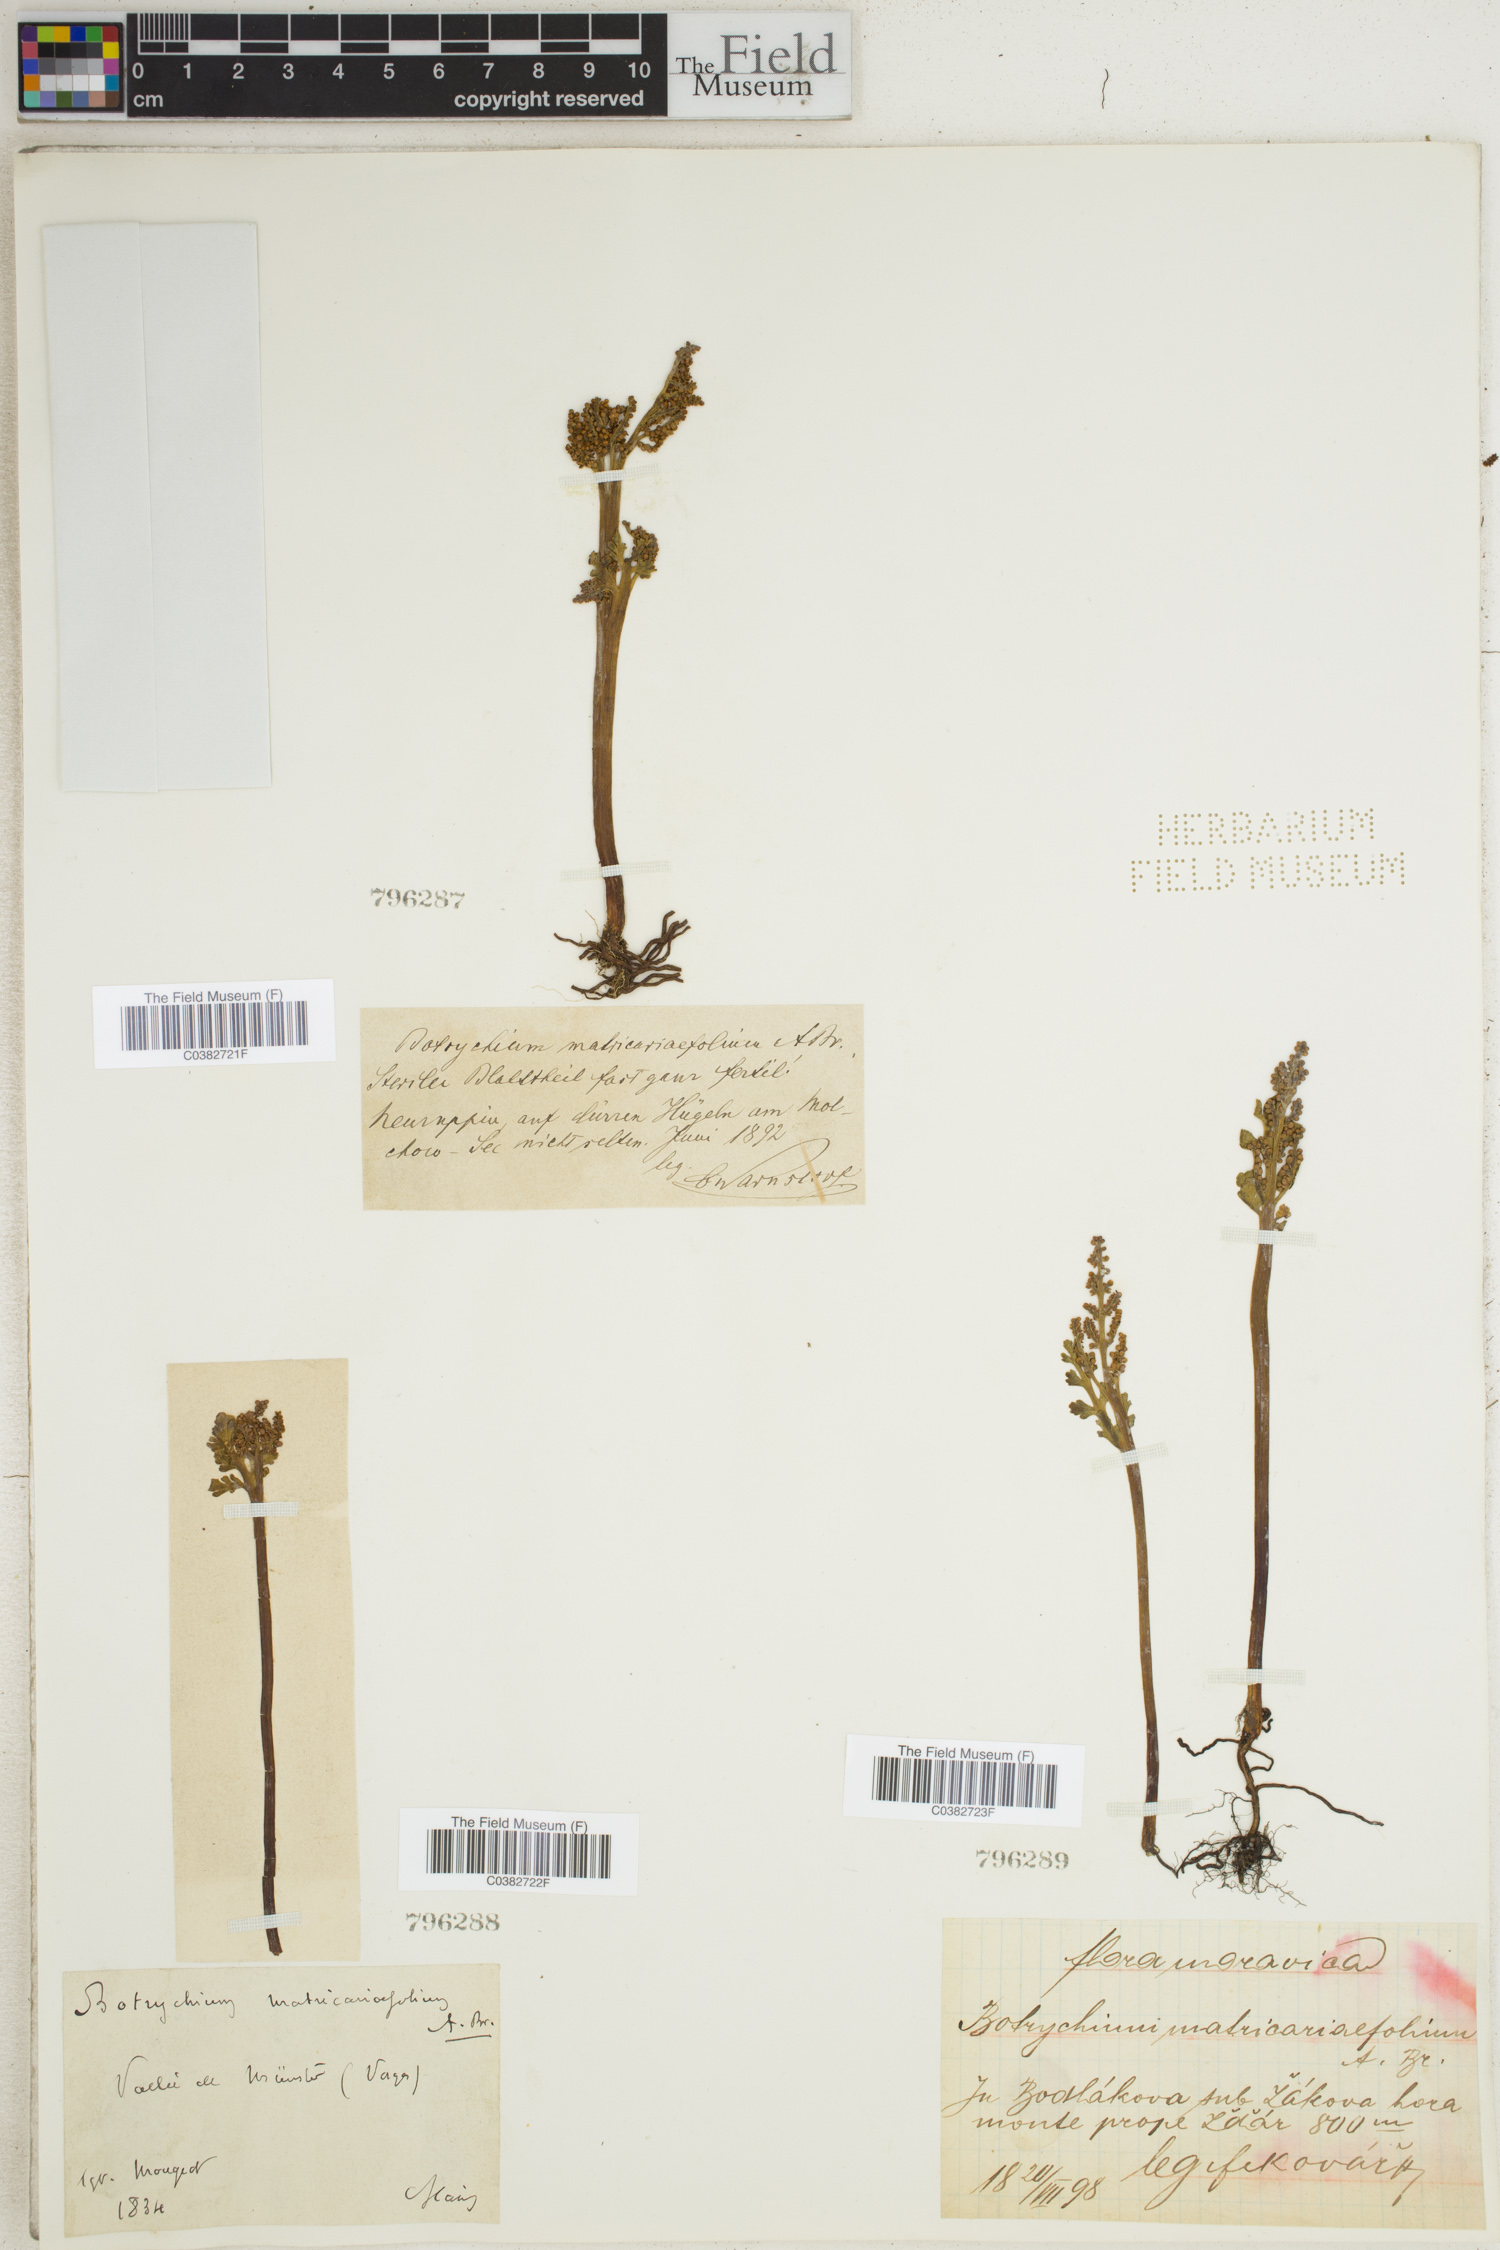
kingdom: Plantae
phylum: Tracheophyta
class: Polypodiopsida
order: Ophioglossales
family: Ophioglossaceae
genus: Botrychium
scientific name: Botrychium matricariifolium
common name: Branched moonwort
